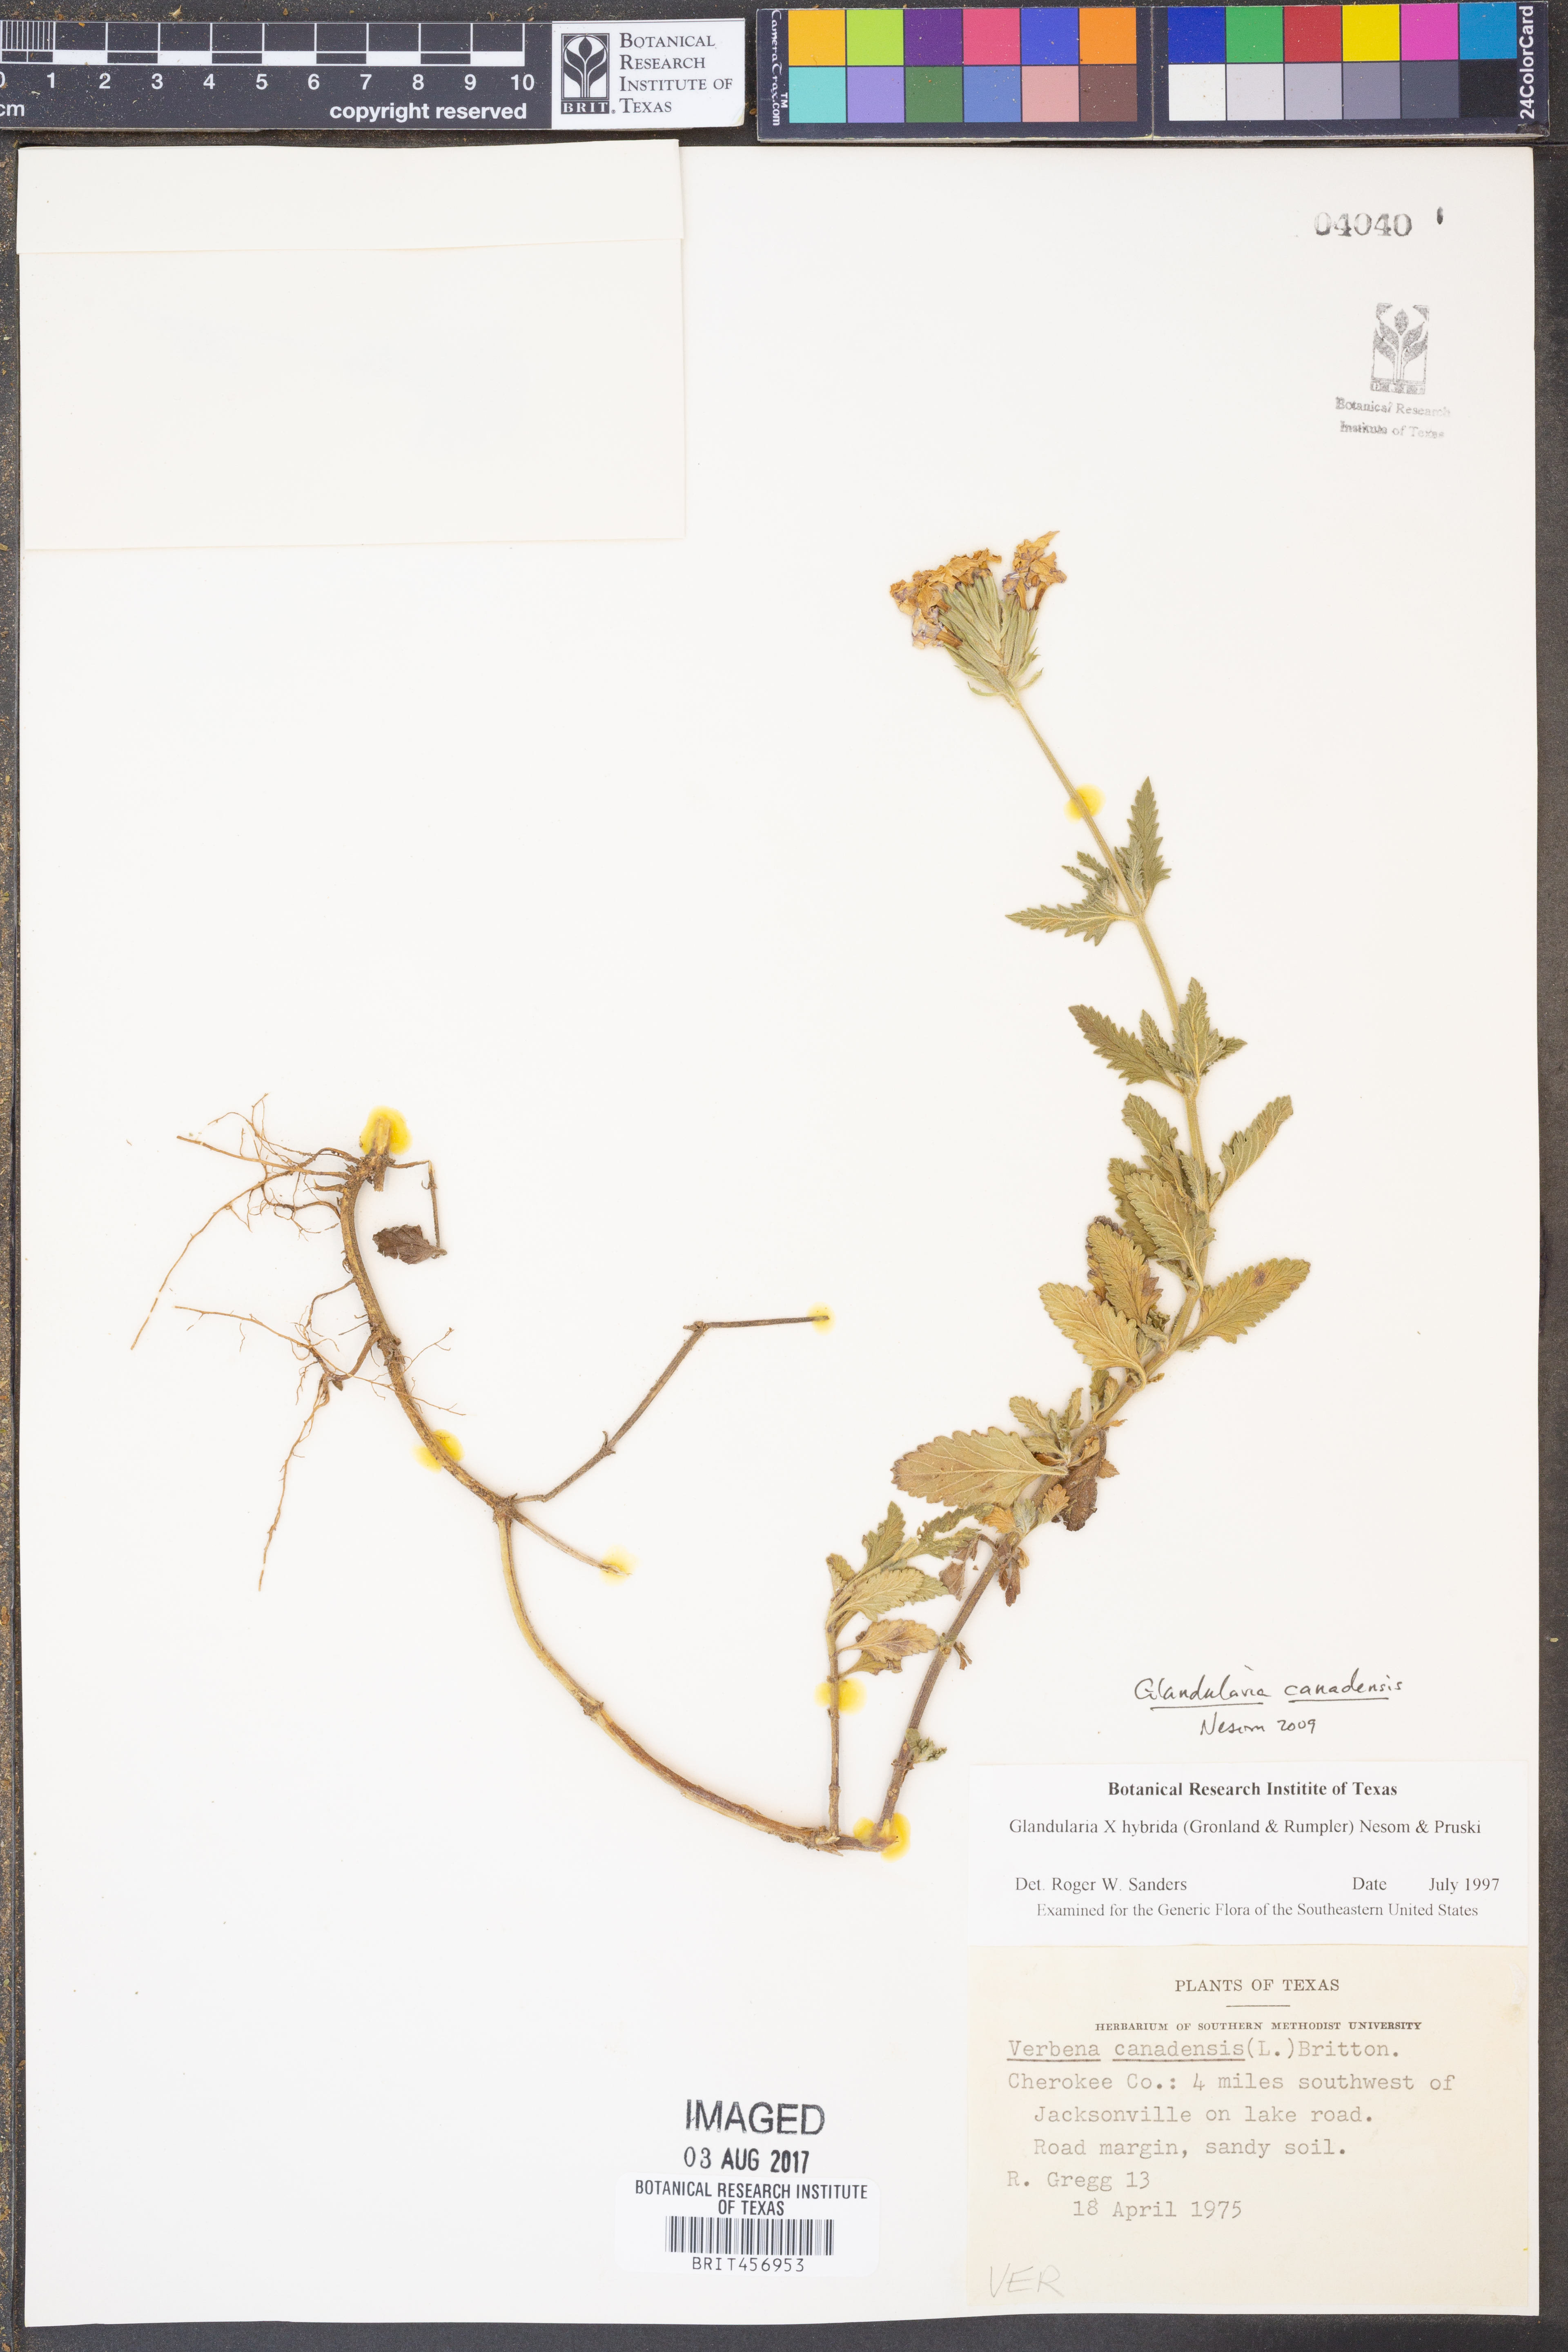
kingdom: Plantae
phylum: Tracheophyta
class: Magnoliopsida
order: Lamiales
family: Verbenaceae
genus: Verbena
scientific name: Verbena hybrida
